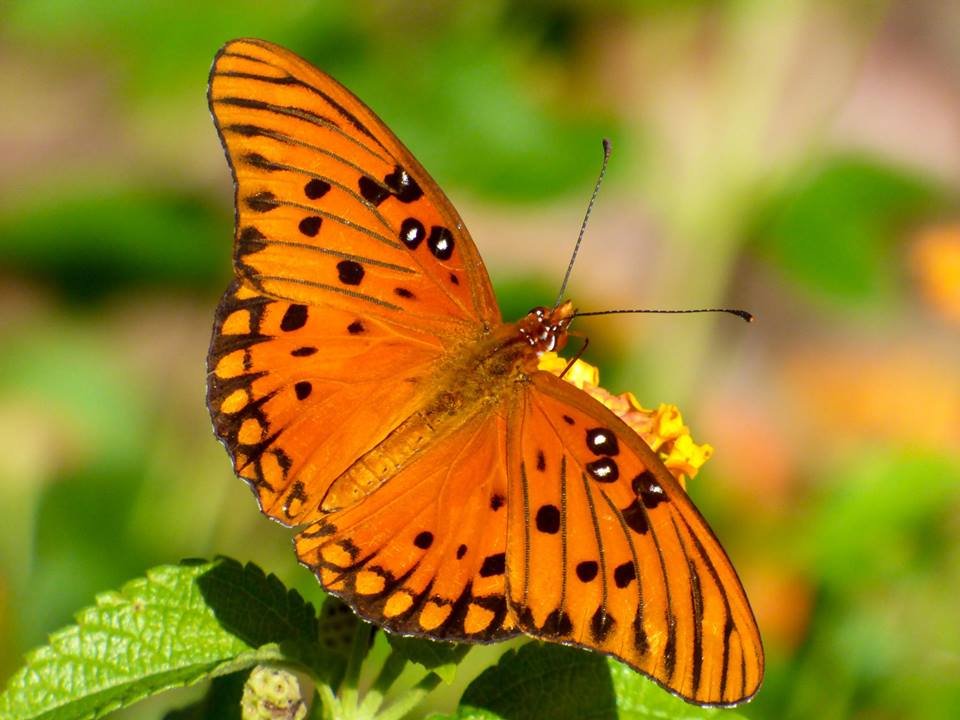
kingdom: Animalia
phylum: Arthropoda
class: Insecta
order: Lepidoptera
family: Nymphalidae
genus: Dione
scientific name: Dione vanillae
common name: Gulf Fritillary
